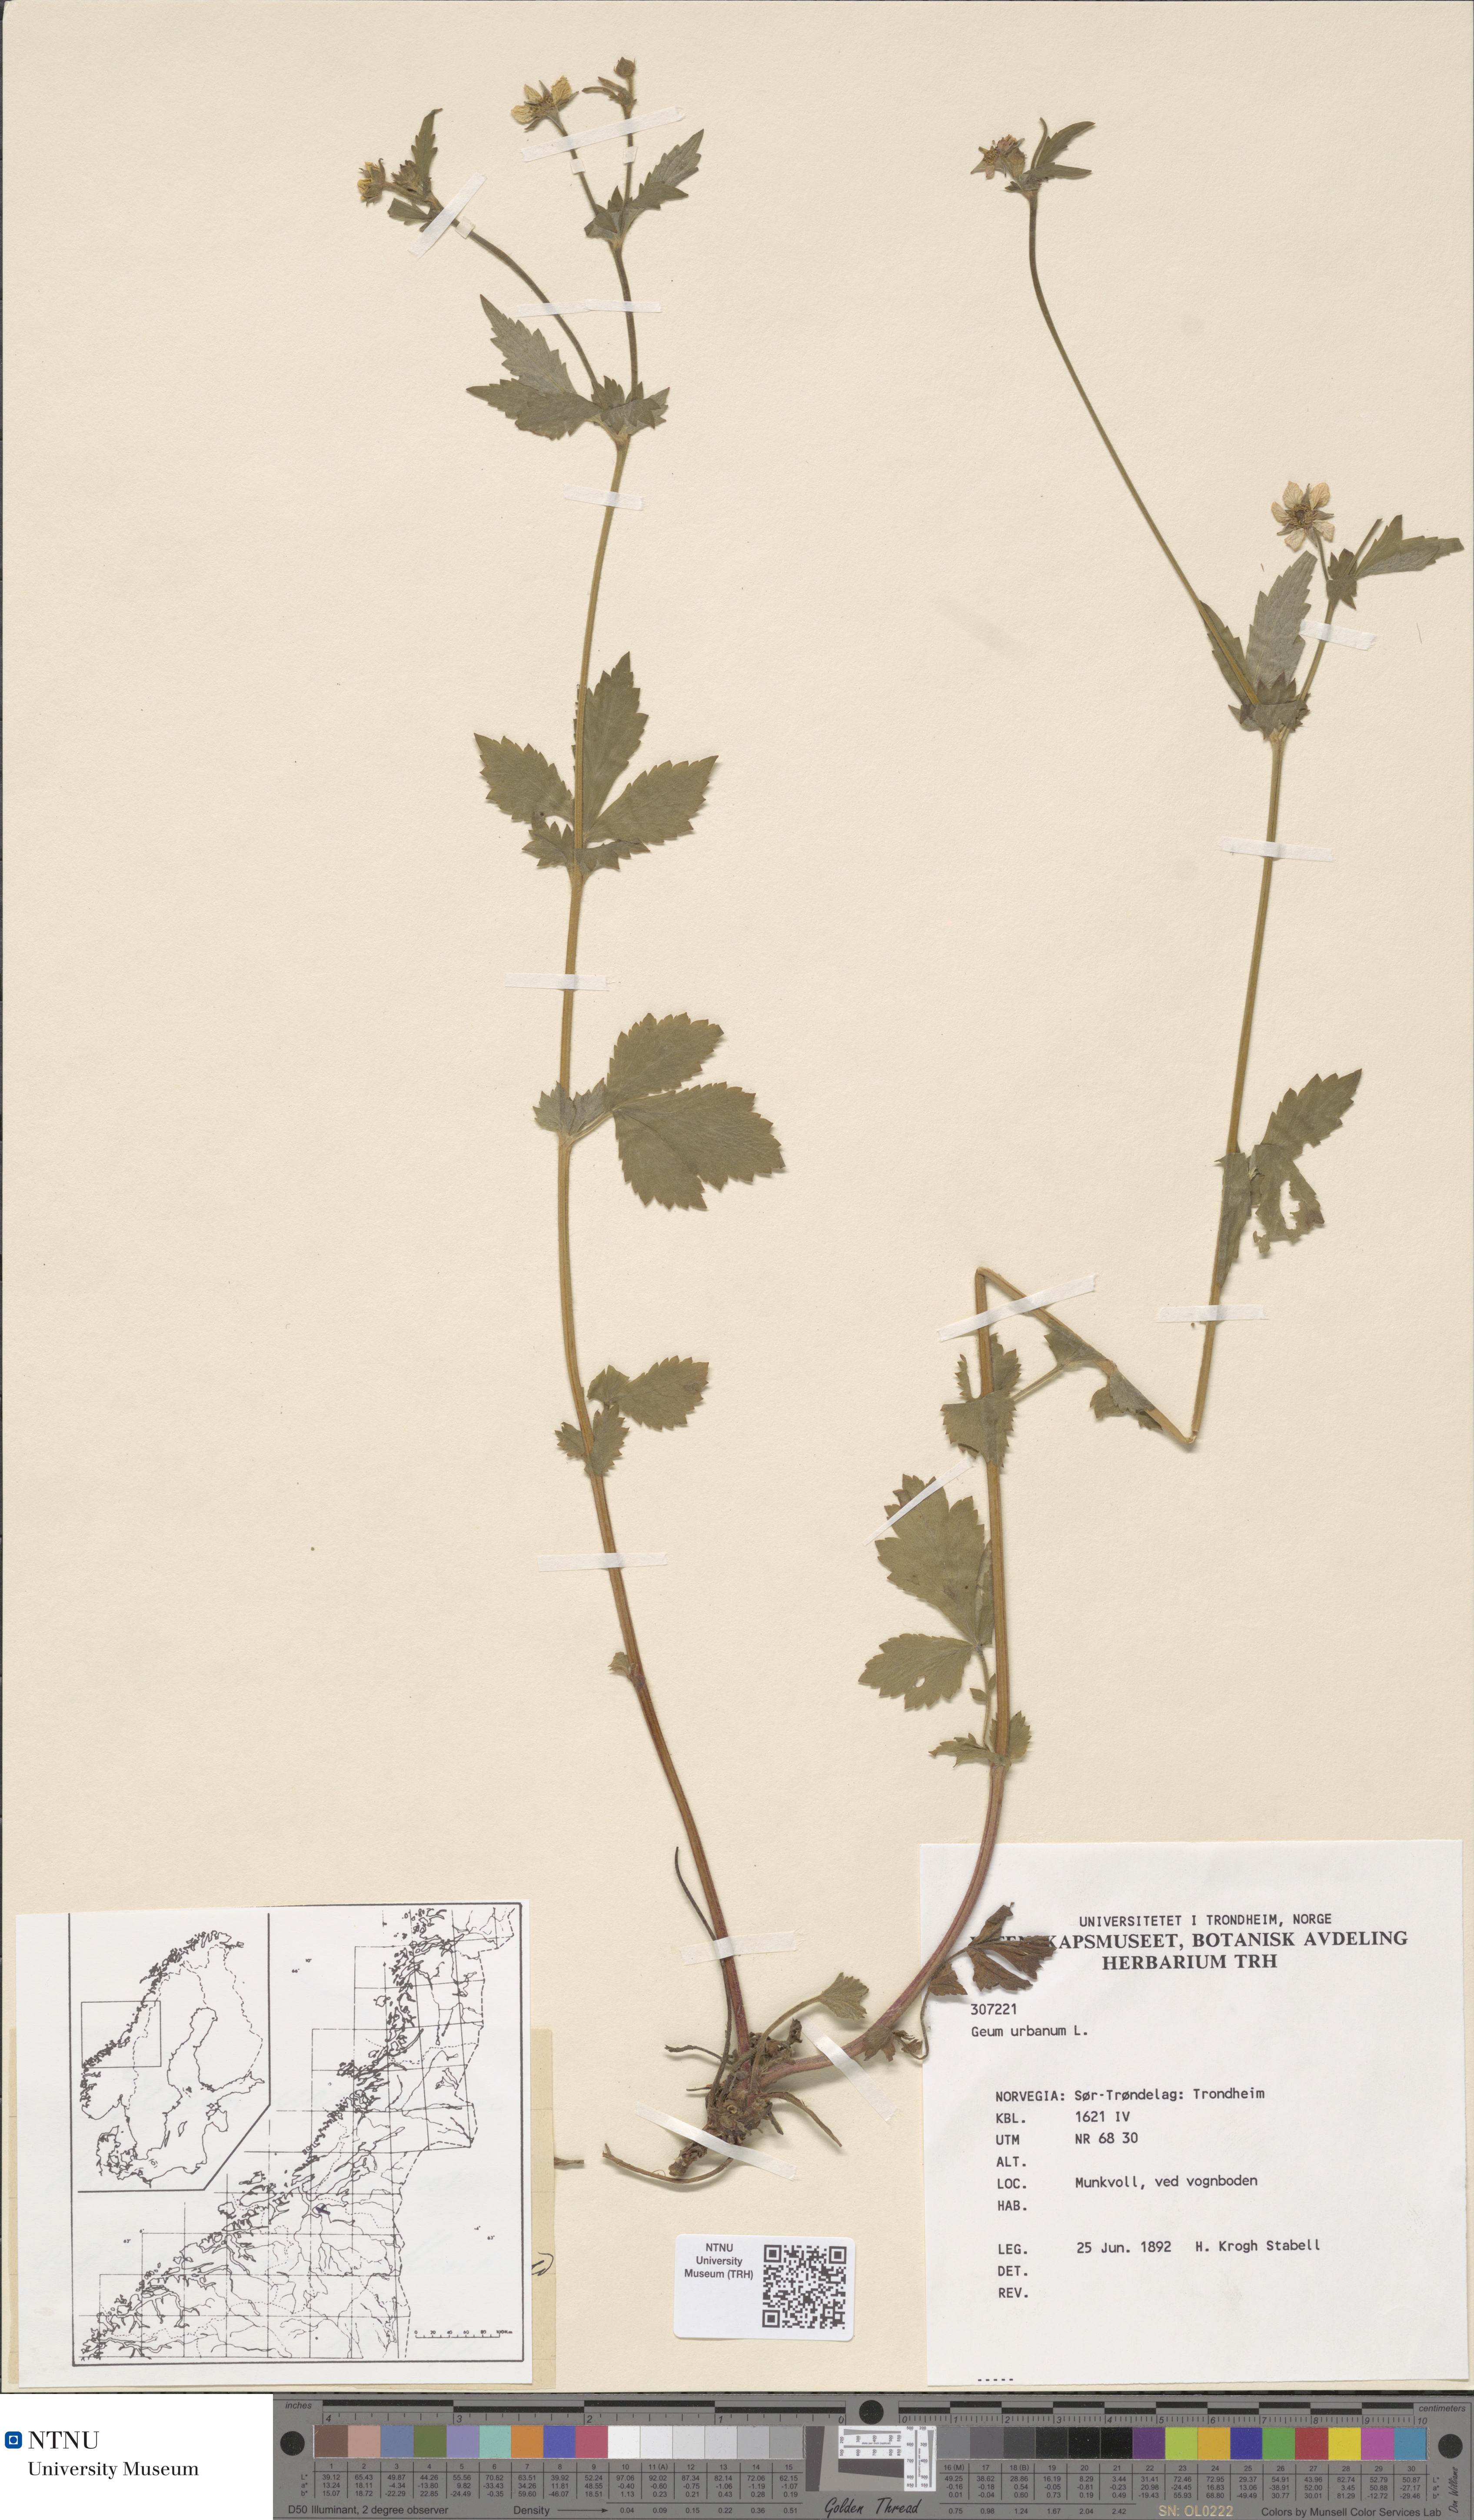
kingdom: Plantae
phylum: Tracheophyta
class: Magnoliopsida
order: Rosales
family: Rosaceae
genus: Geum
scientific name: Geum urbanum
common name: Wood avens
